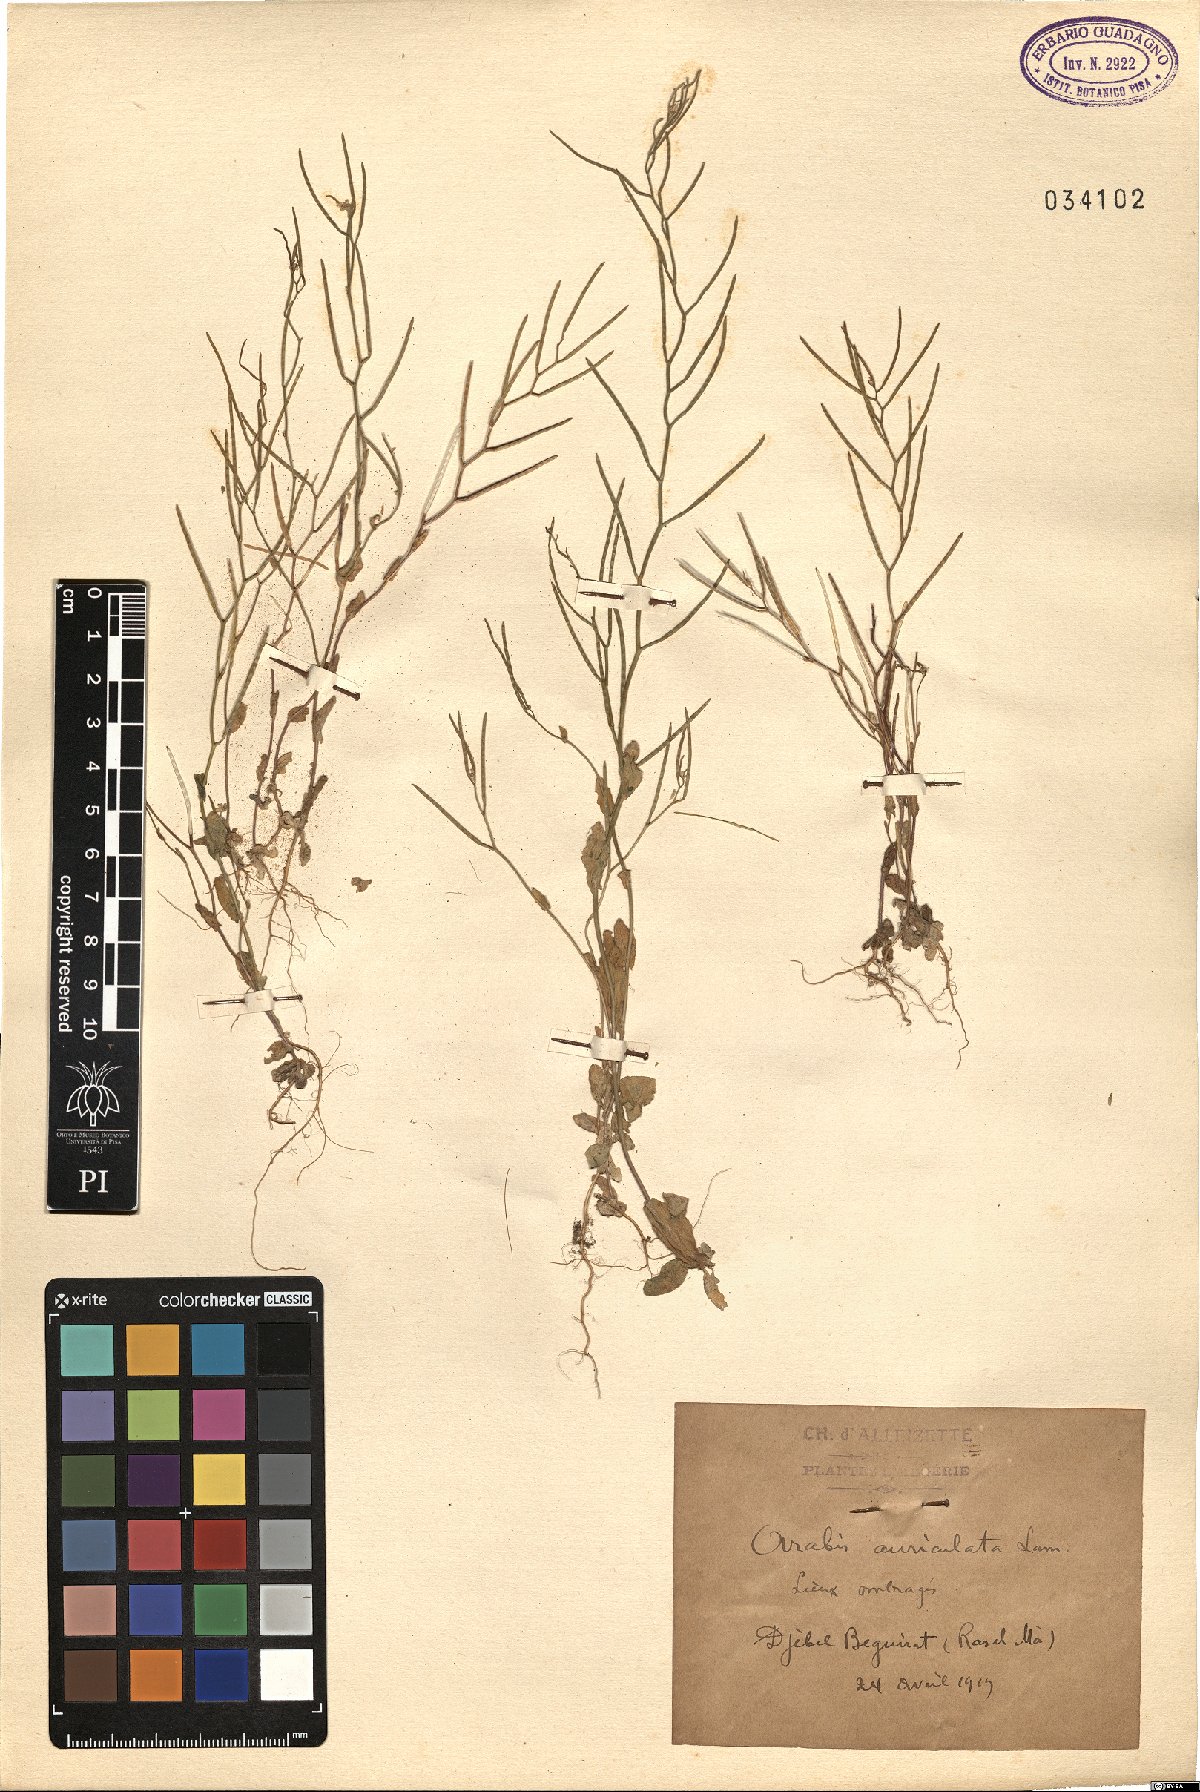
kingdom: Plantae
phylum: Tracheophyta
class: Magnoliopsida
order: Brassicales
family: Brassicaceae
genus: Arabis
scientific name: Arabis auriculata
